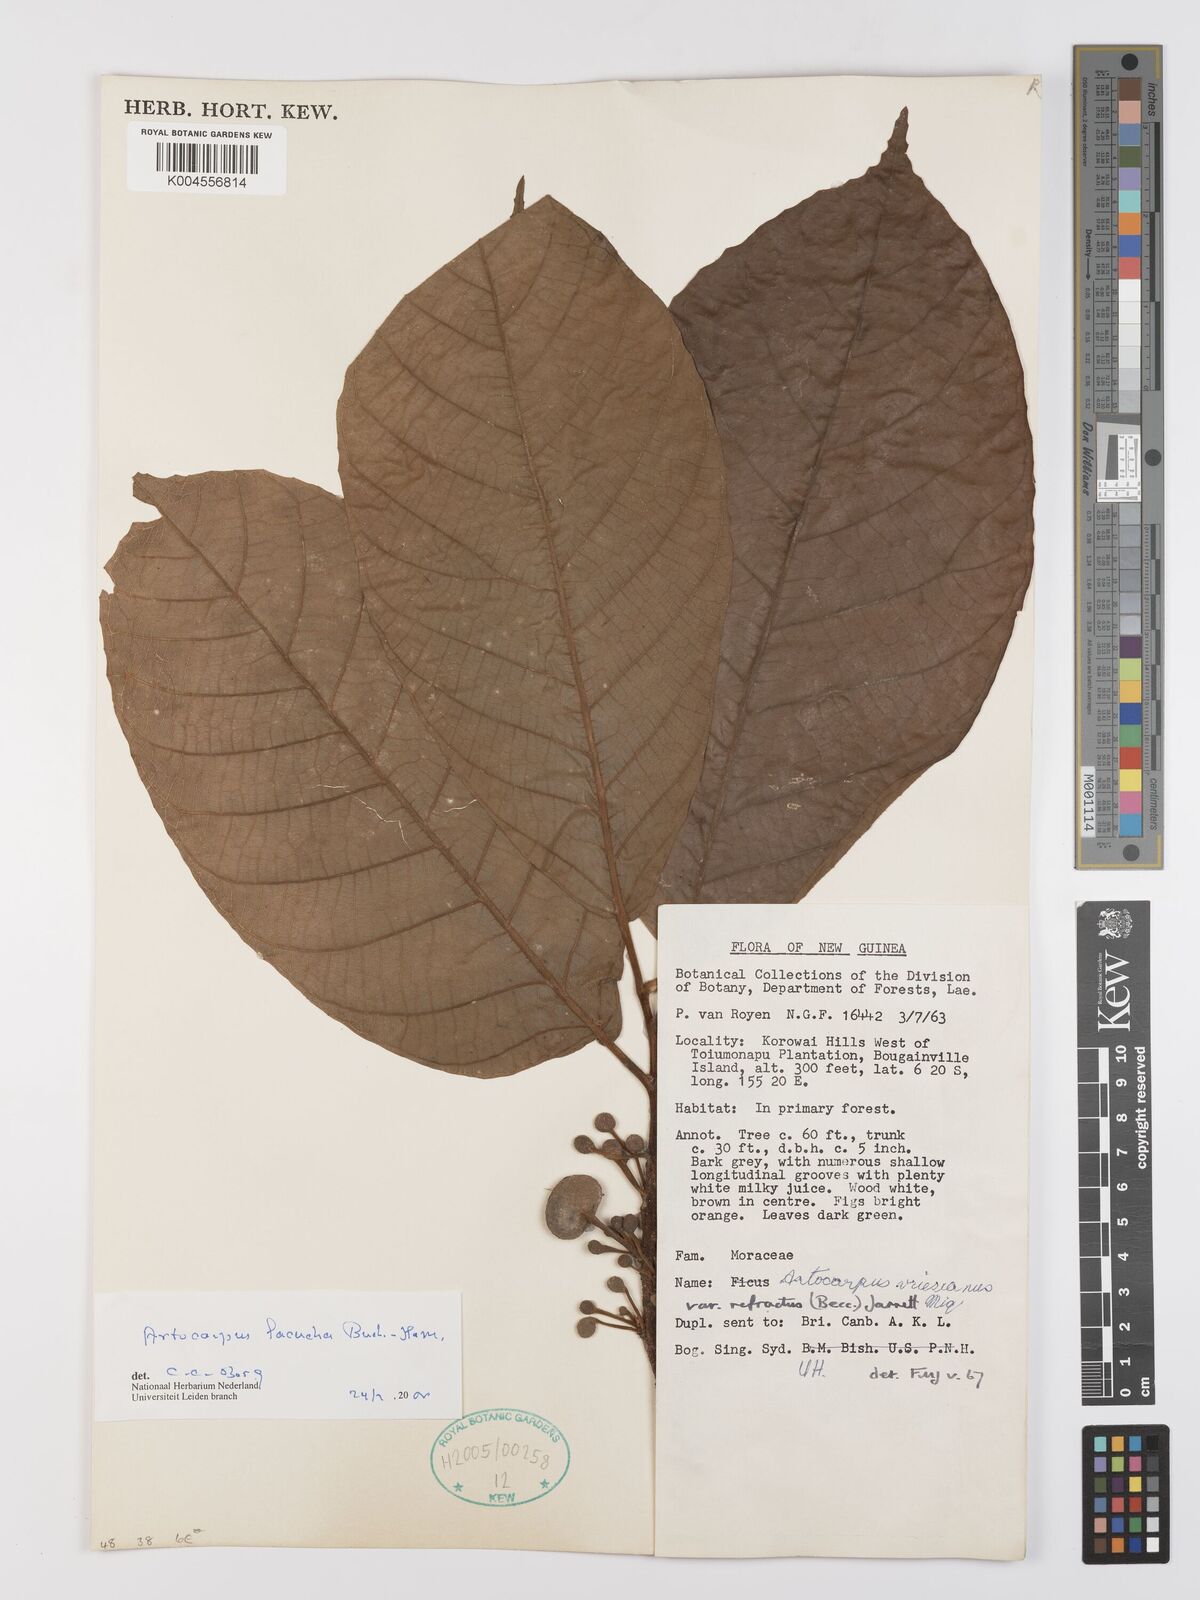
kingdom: Plantae
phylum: Tracheophyta
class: Magnoliopsida
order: Rosales
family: Moraceae
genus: Artocarpus
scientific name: Artocarpus lacucha
